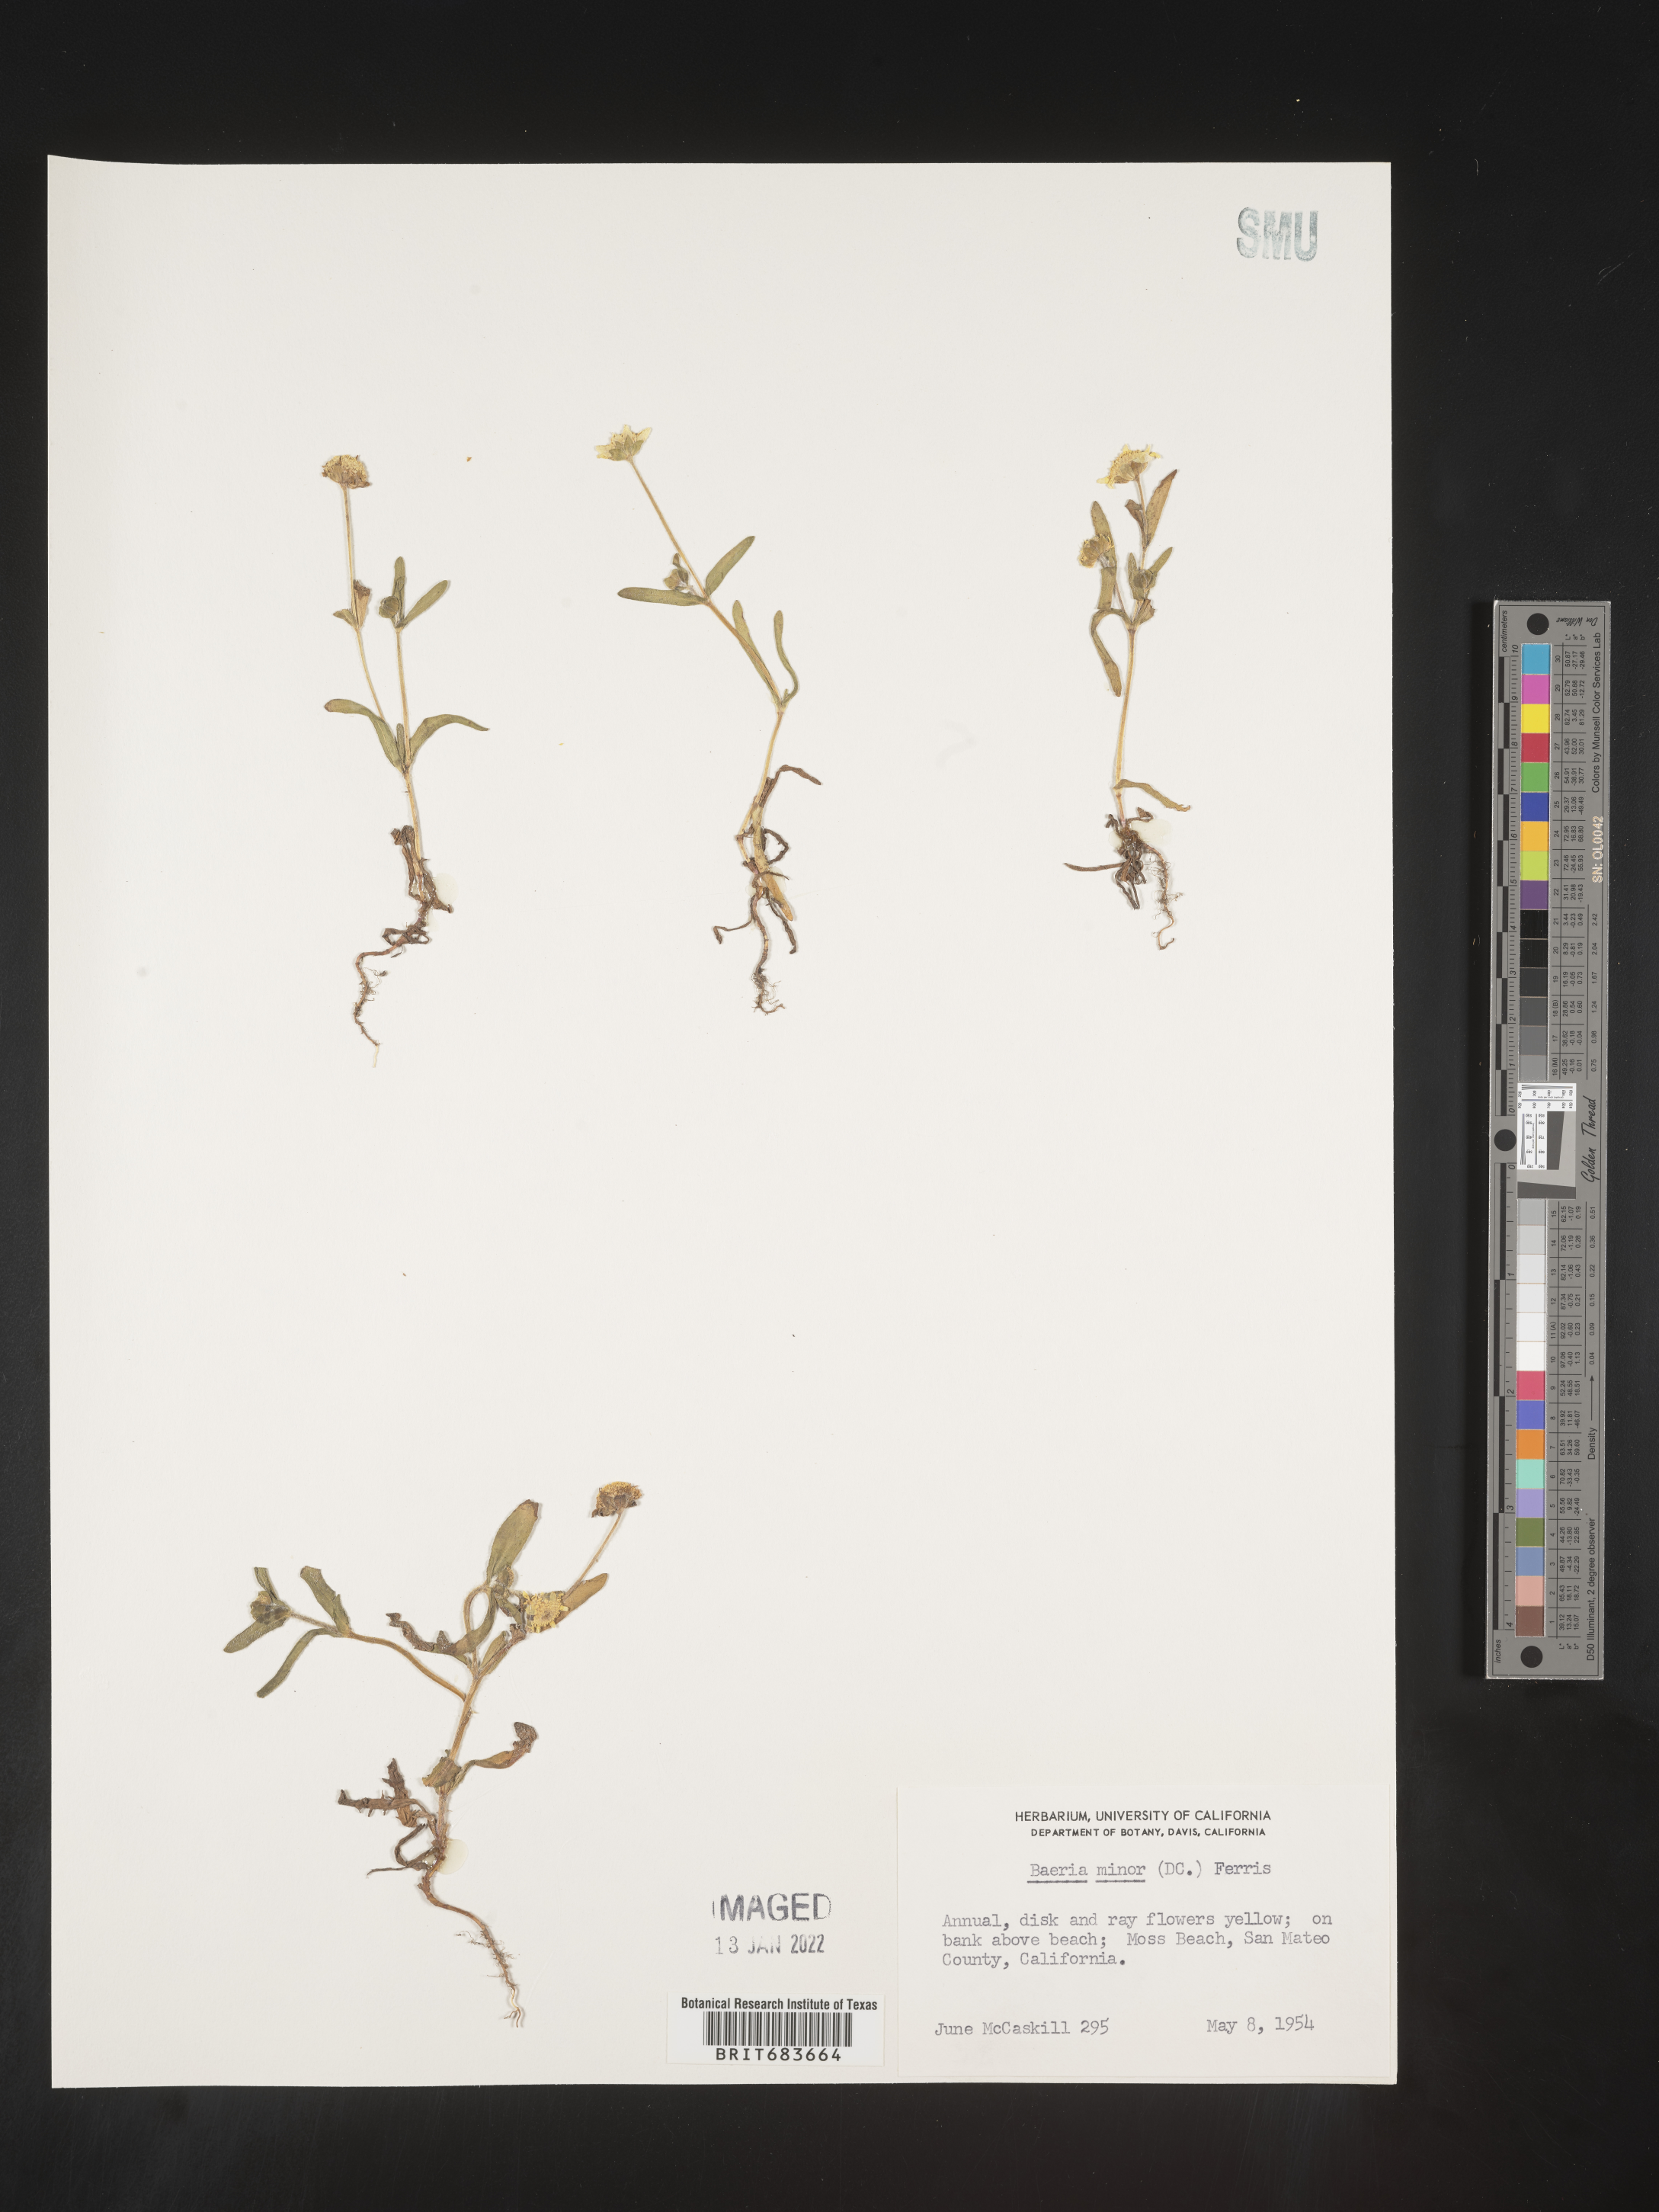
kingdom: Plantae
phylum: Tracheophyta
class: Magnoliopsida
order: Asterales
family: Asteraceae
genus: Lasthenia
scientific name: Lasthenia
